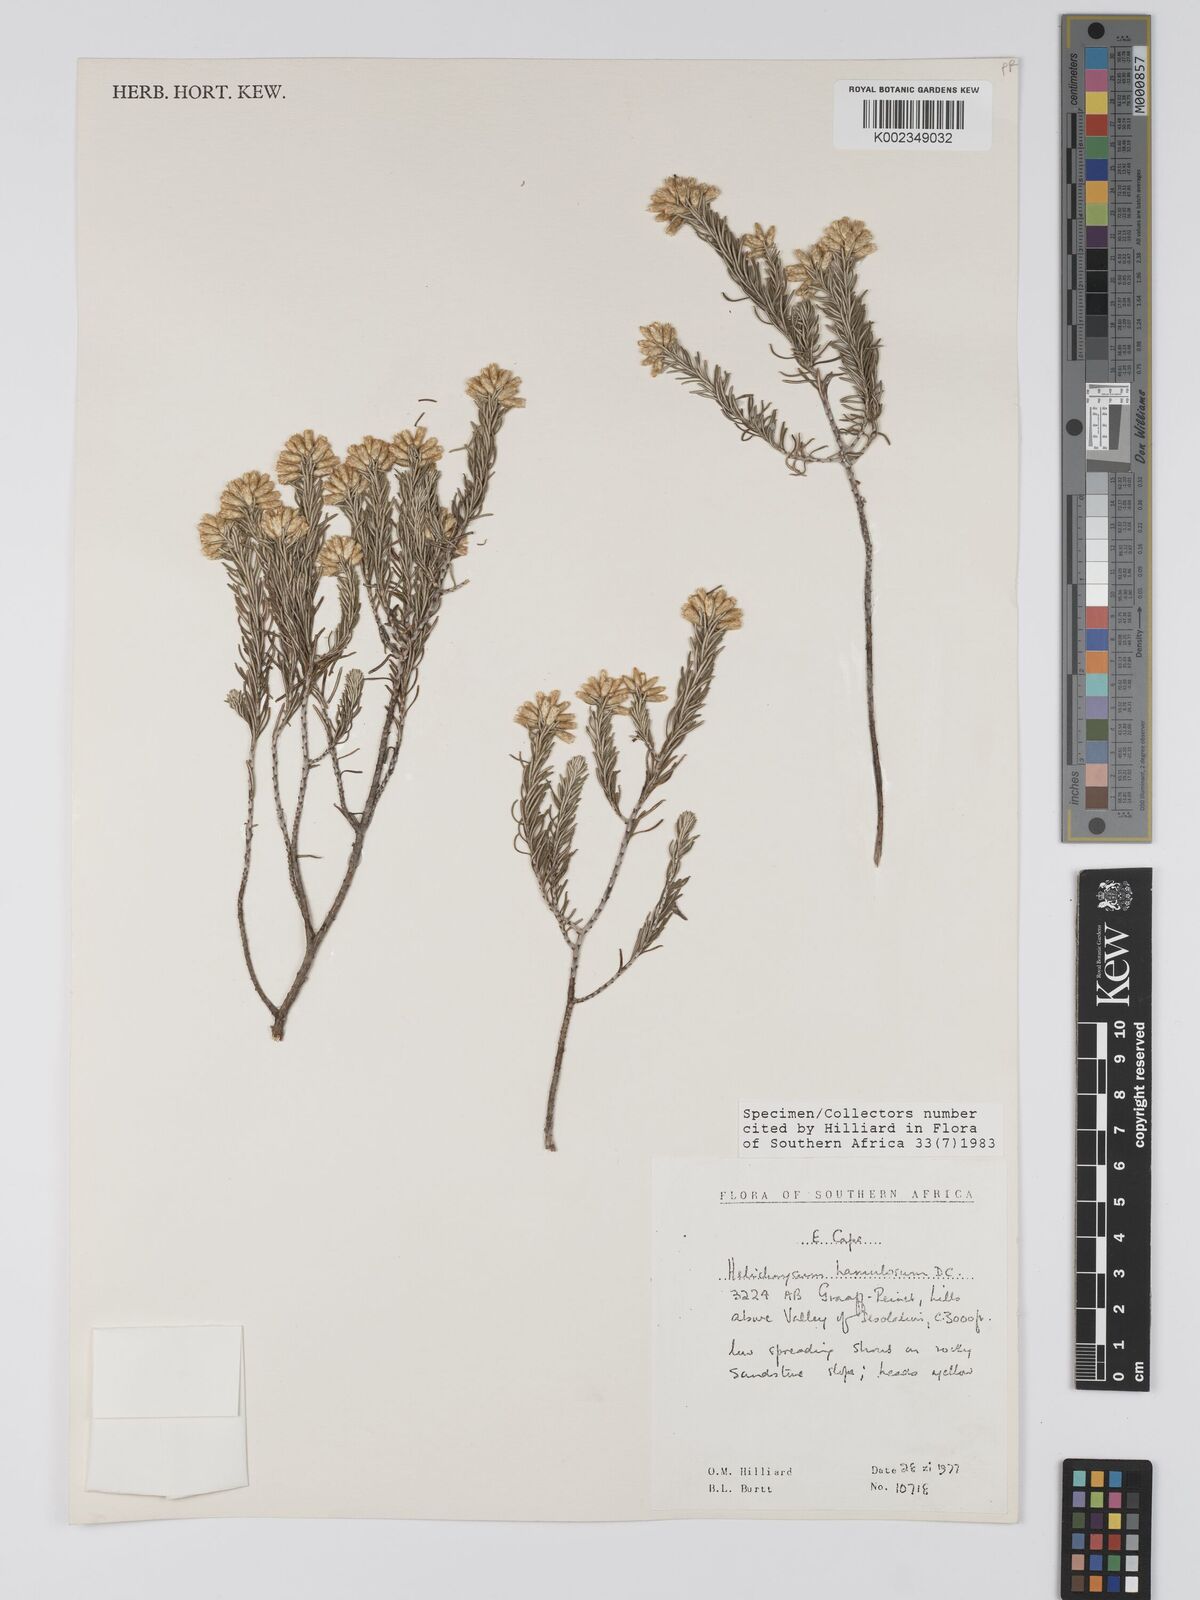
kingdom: Plantae
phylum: Tracheophyta
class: Magnoliopsida
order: Asterales
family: Asteraceae
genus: Helichrysum
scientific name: Helichrysum hamulosum
